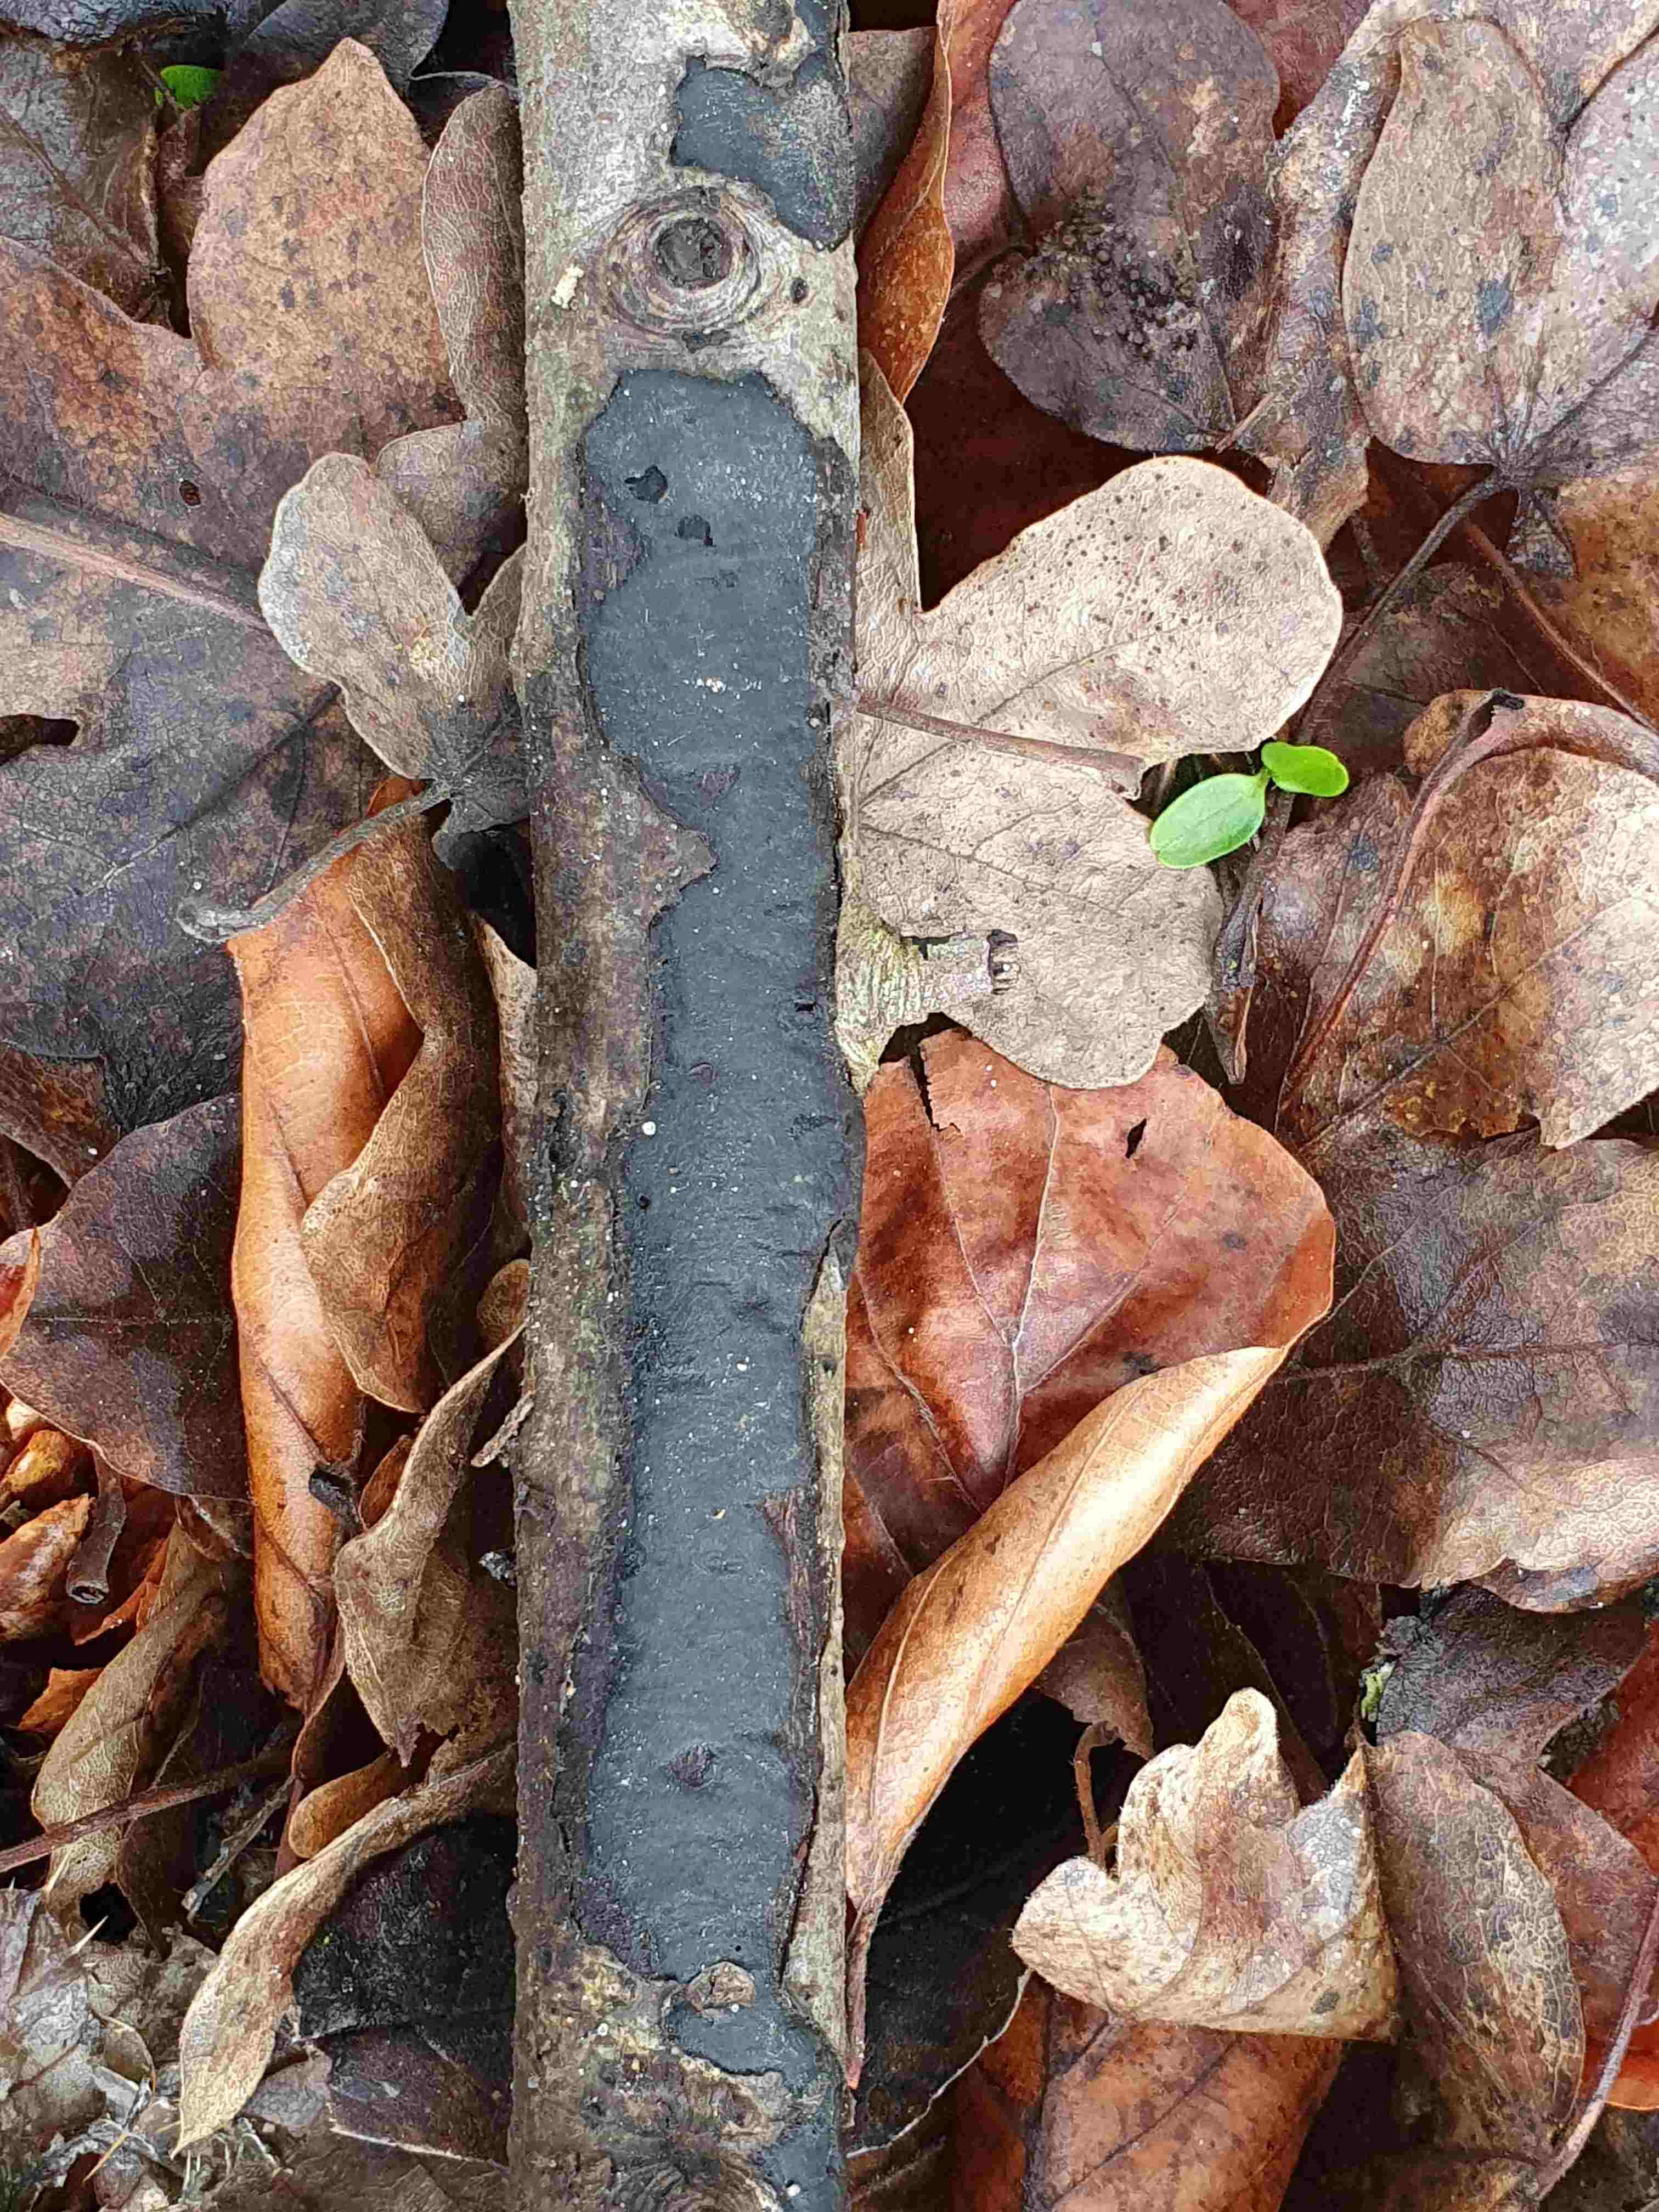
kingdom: Fungi
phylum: Ascomycota
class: Sordariomycetes
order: Xylariales
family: Diatrypaceae
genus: Diatrype
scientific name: Diatrype stigma
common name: udbredt kulskorpe
